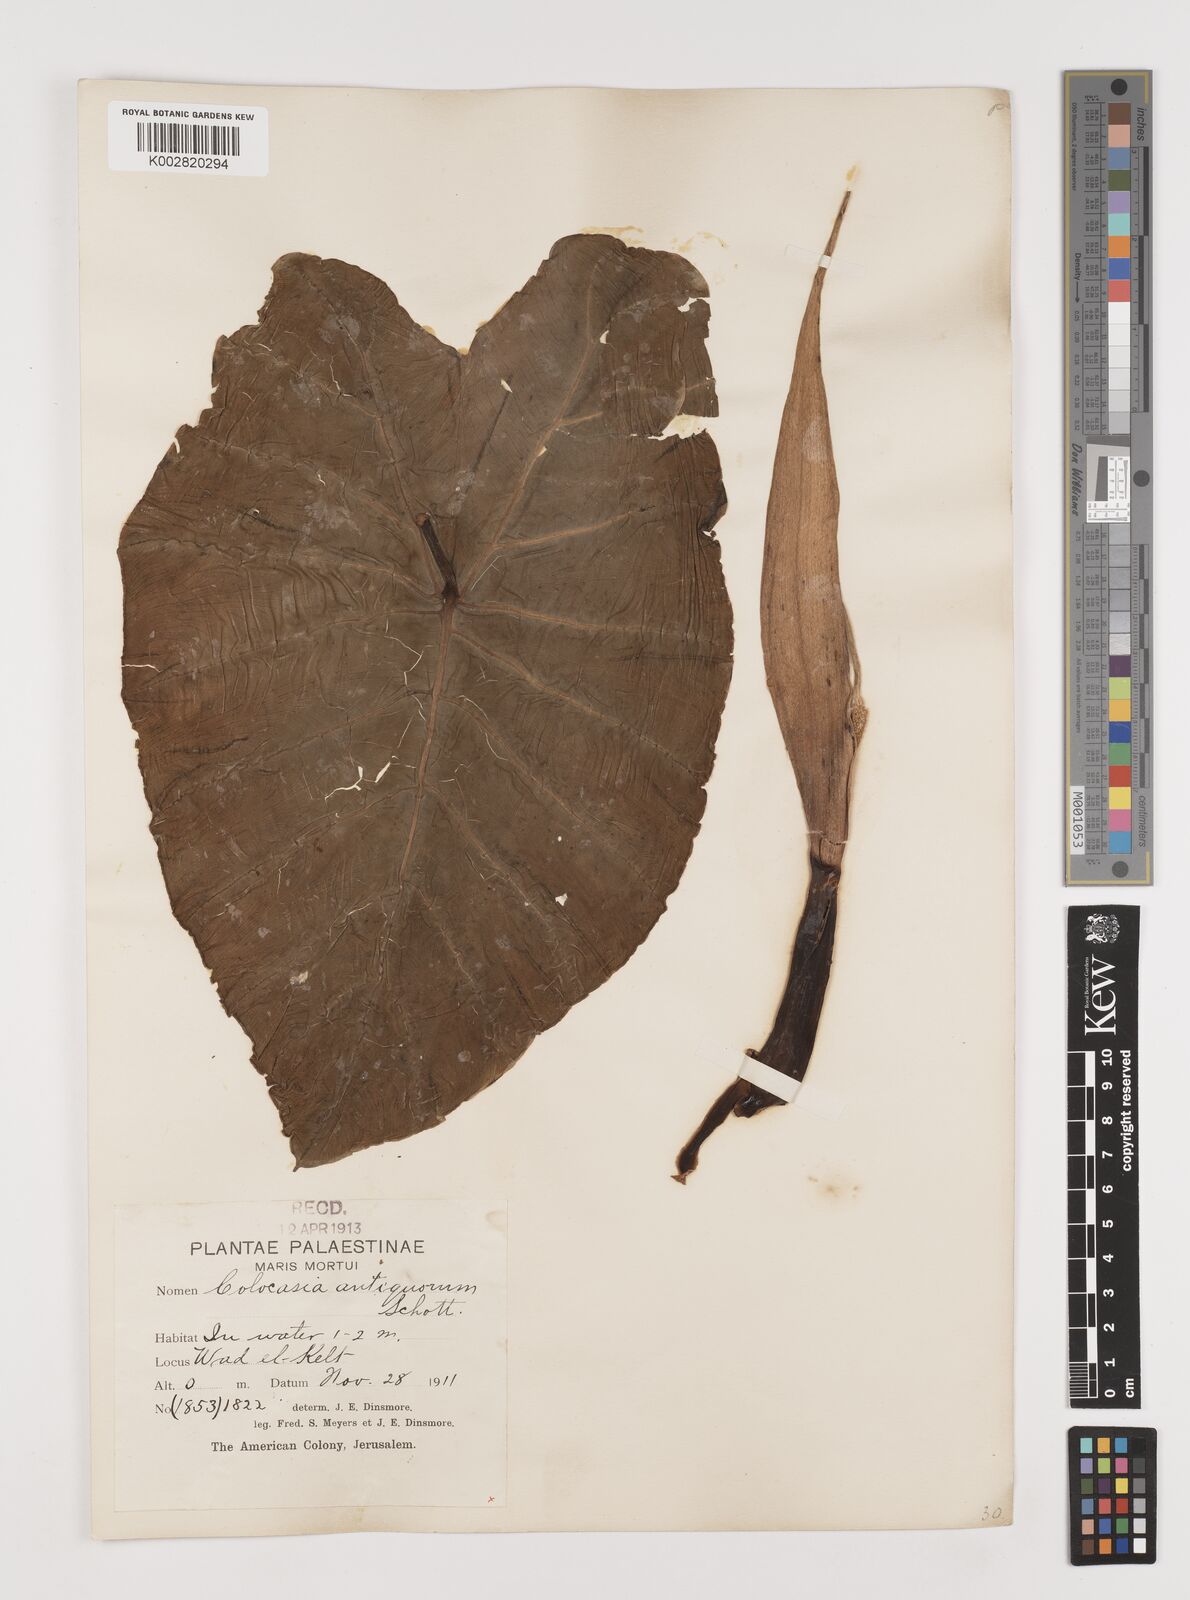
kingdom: Plantae
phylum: Tracheophyta
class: Liliopsida
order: Alismatales
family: Araceae
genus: Colocasia
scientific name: Colocasia esculenta
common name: Taro
